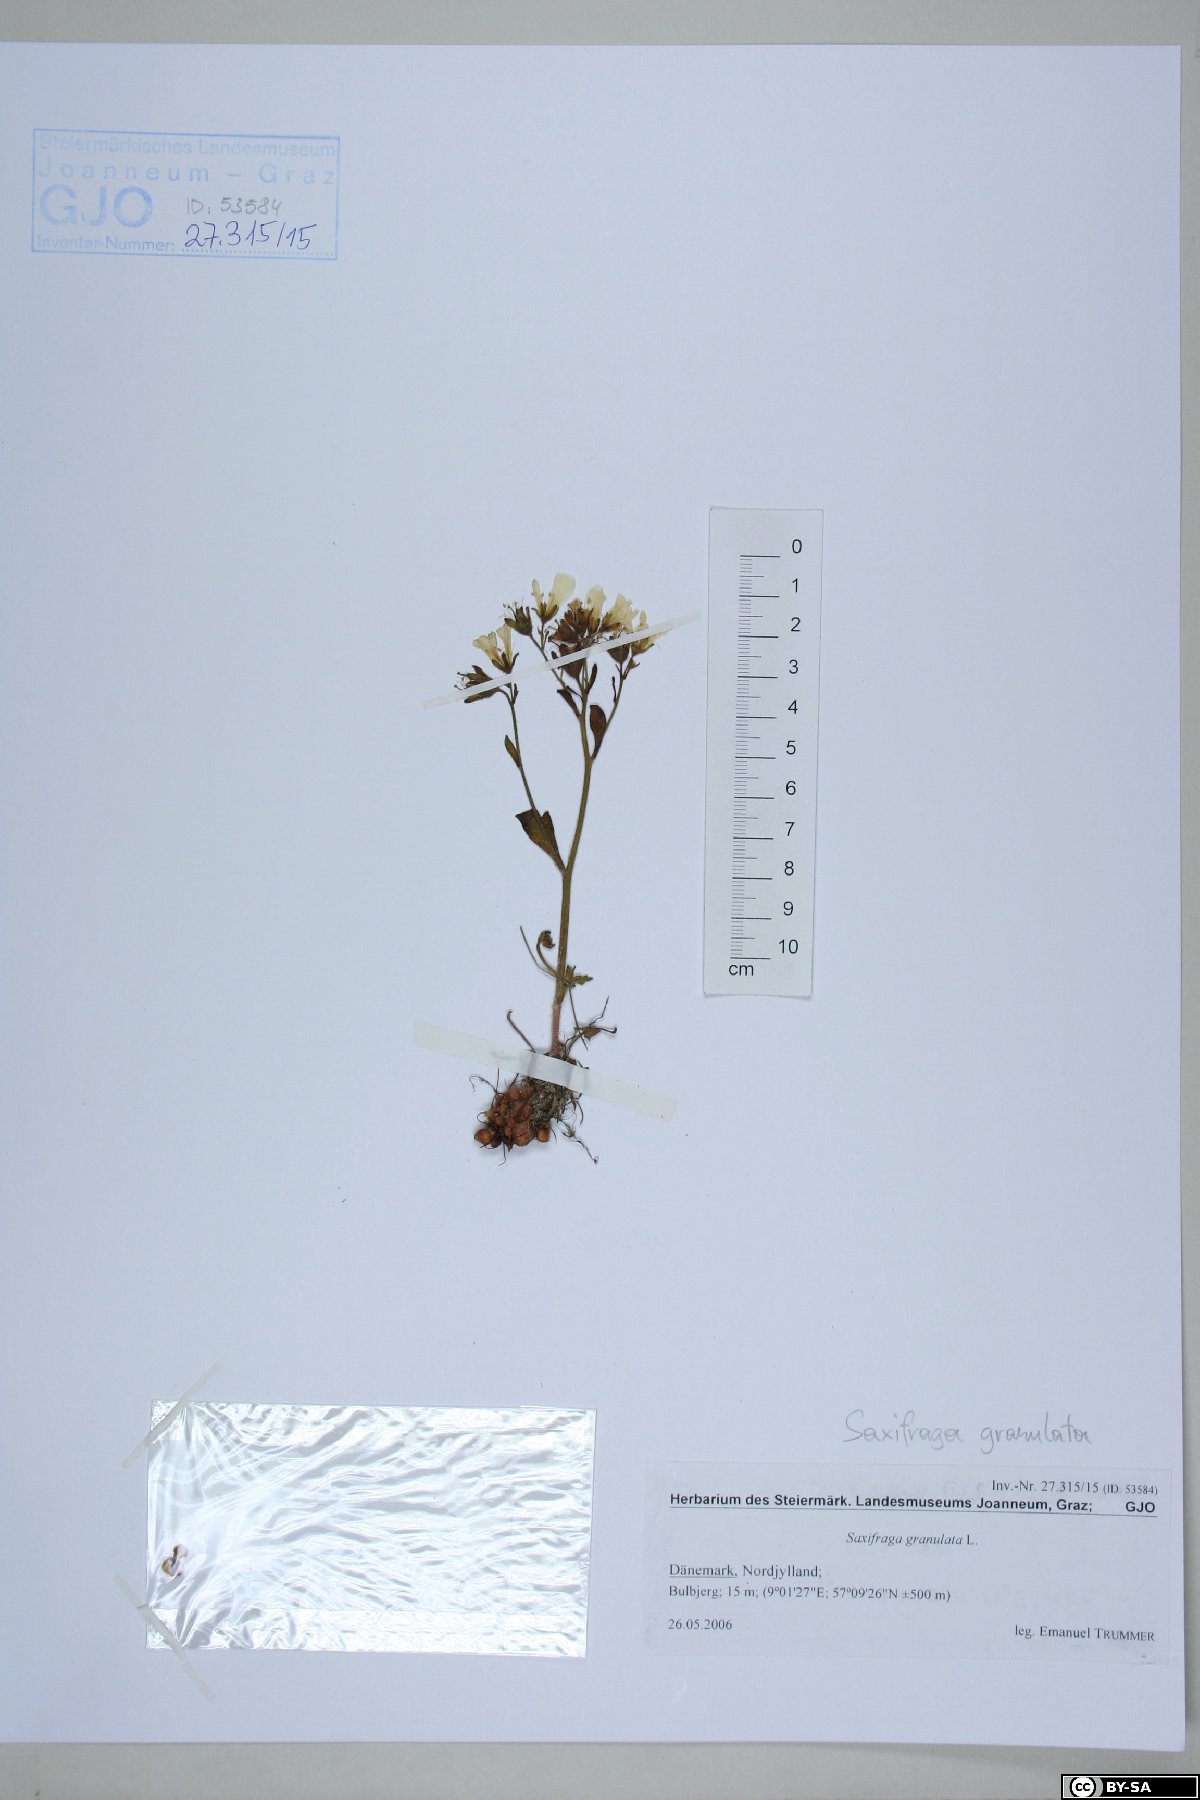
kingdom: Plantae
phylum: Tracheophyta
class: Magnoliopsida
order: Saxifragales
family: Saxifragaceae
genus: Saxifraga
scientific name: Saxifraga granulata
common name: Meadow saxifrage
